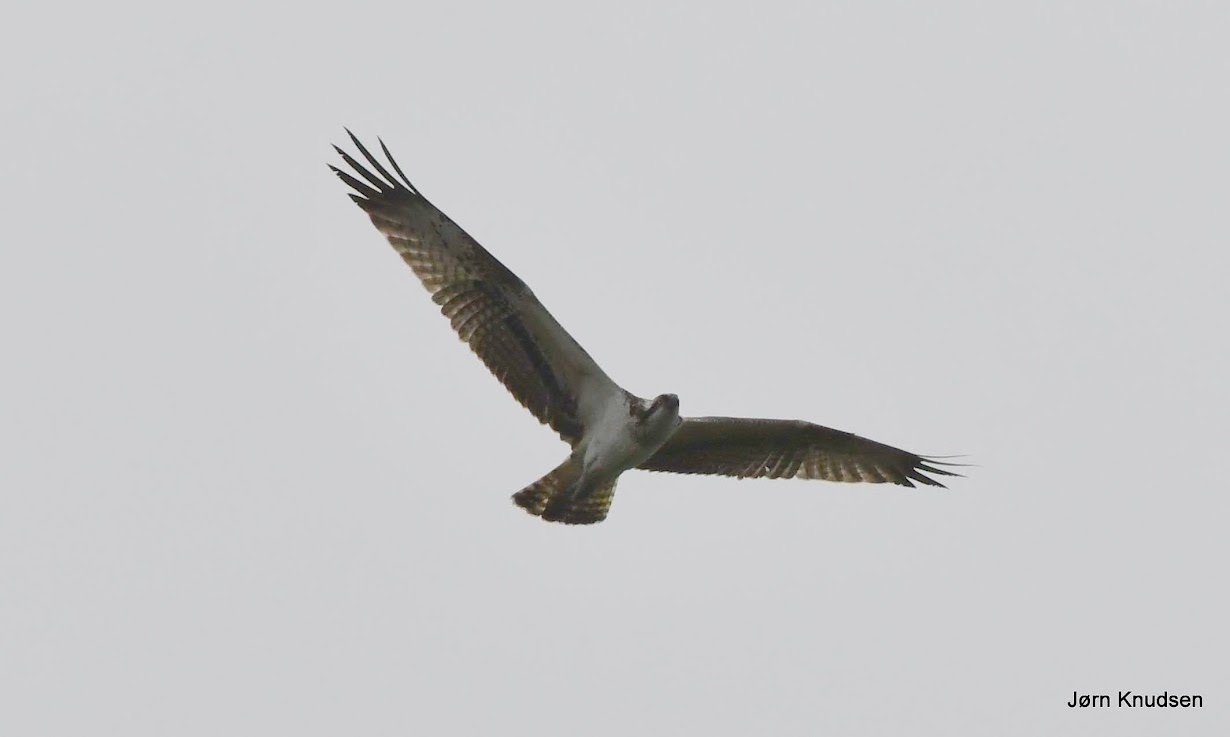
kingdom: Animalia
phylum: Chordata
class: Aves
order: Accipitriformes
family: Pandionidae
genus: Pandion
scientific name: Pandion haliaetus
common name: Fiskeørn
